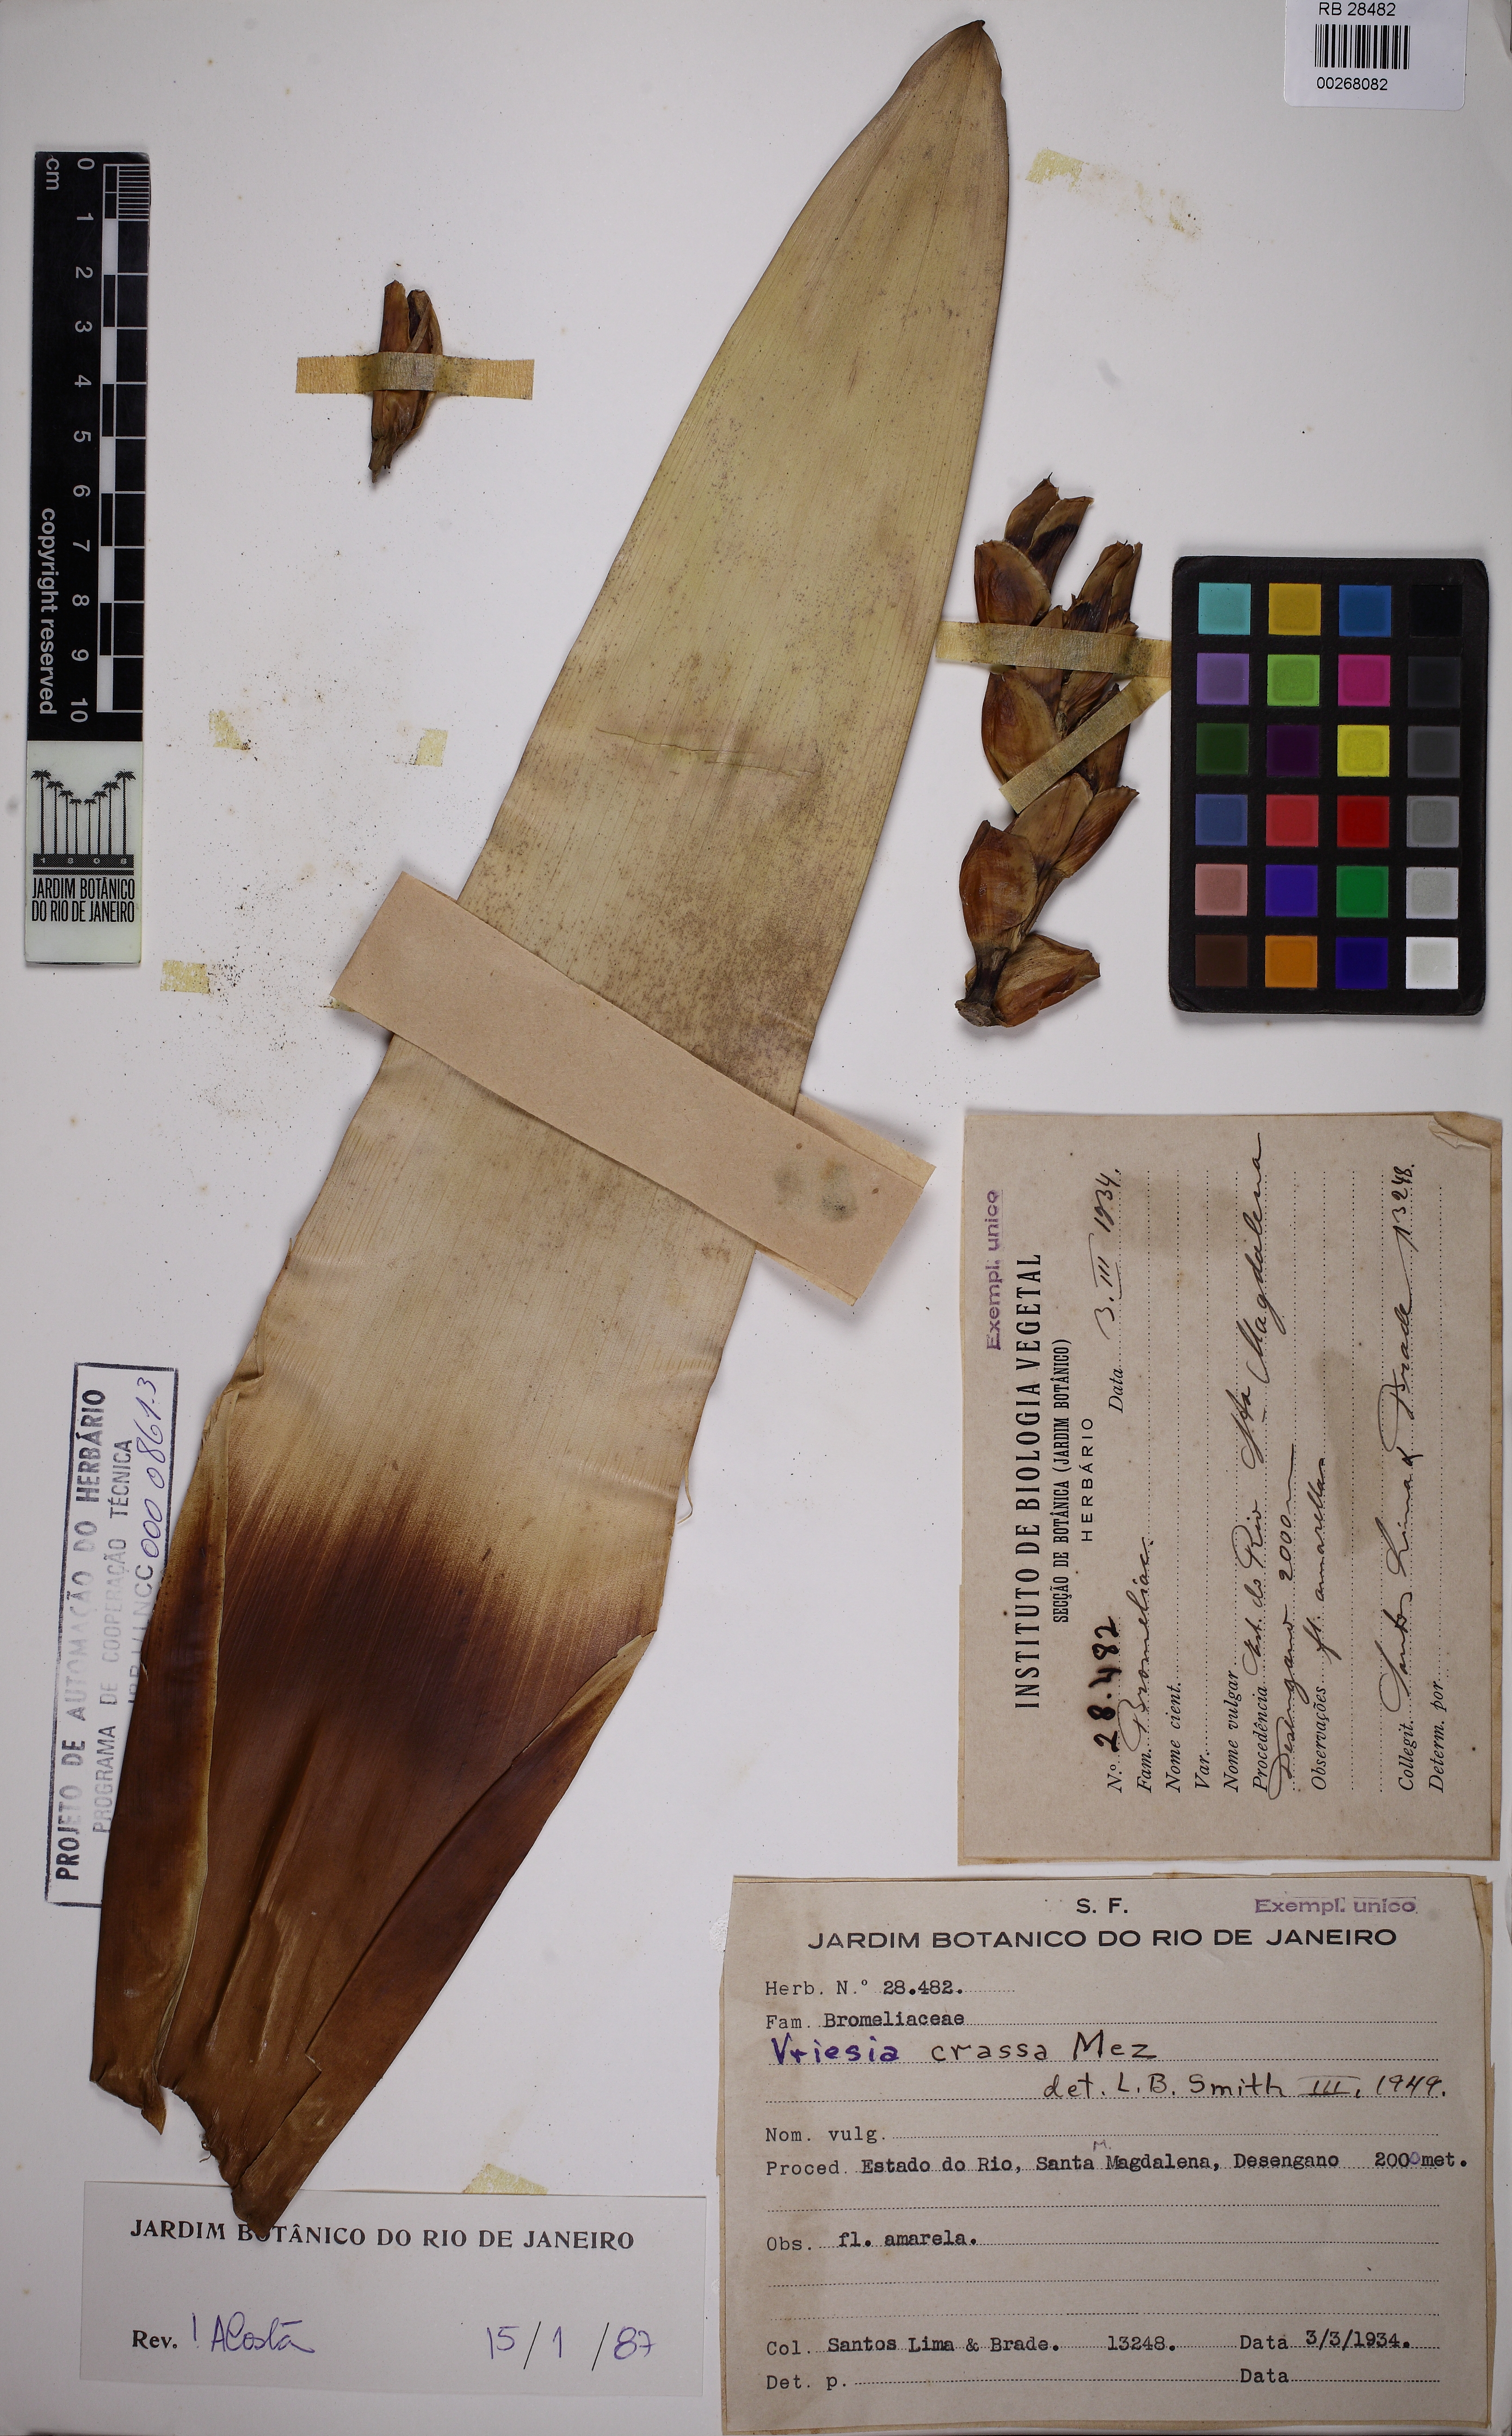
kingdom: Plantae
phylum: Tracheophyta
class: Liliopsida
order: Poales
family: Bromeliaceae
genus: Vriesea
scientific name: Vriesea crassa
